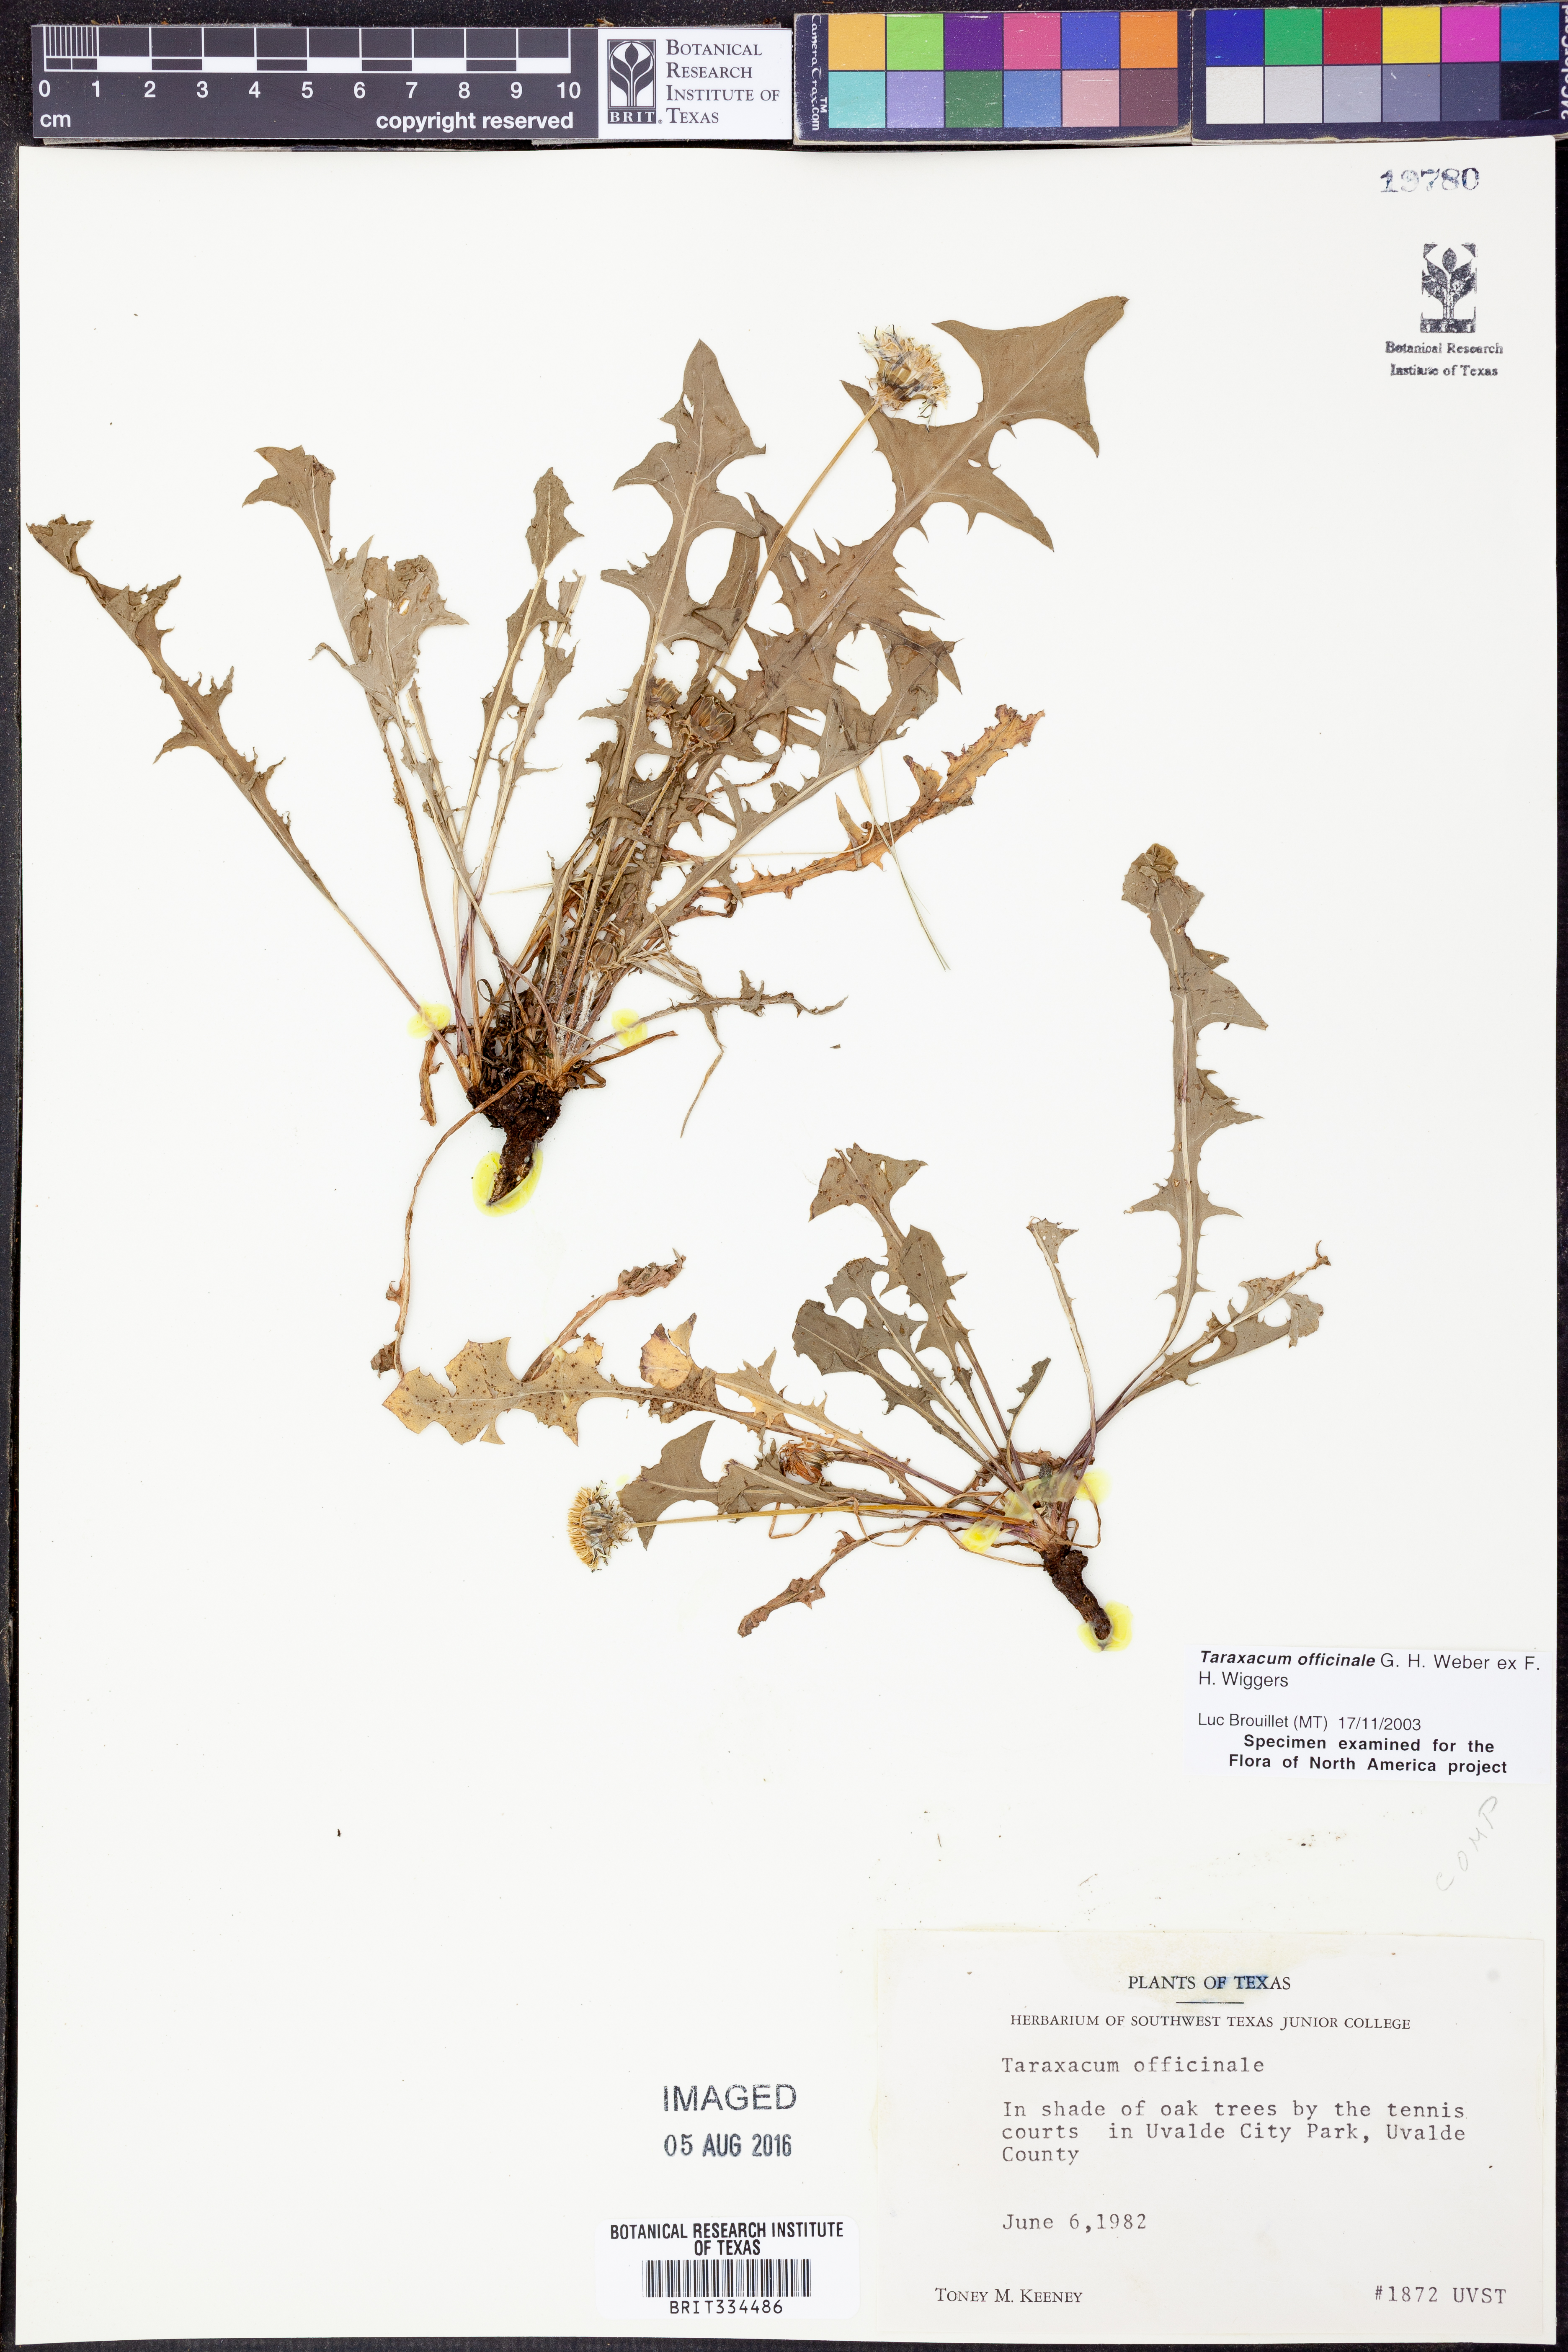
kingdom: Plantae
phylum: Tracheophyta
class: Magnoliopsida
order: Asterales
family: Asteraceae
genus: Taraxacum
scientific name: Taraxacum officinale
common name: Common dandelion
